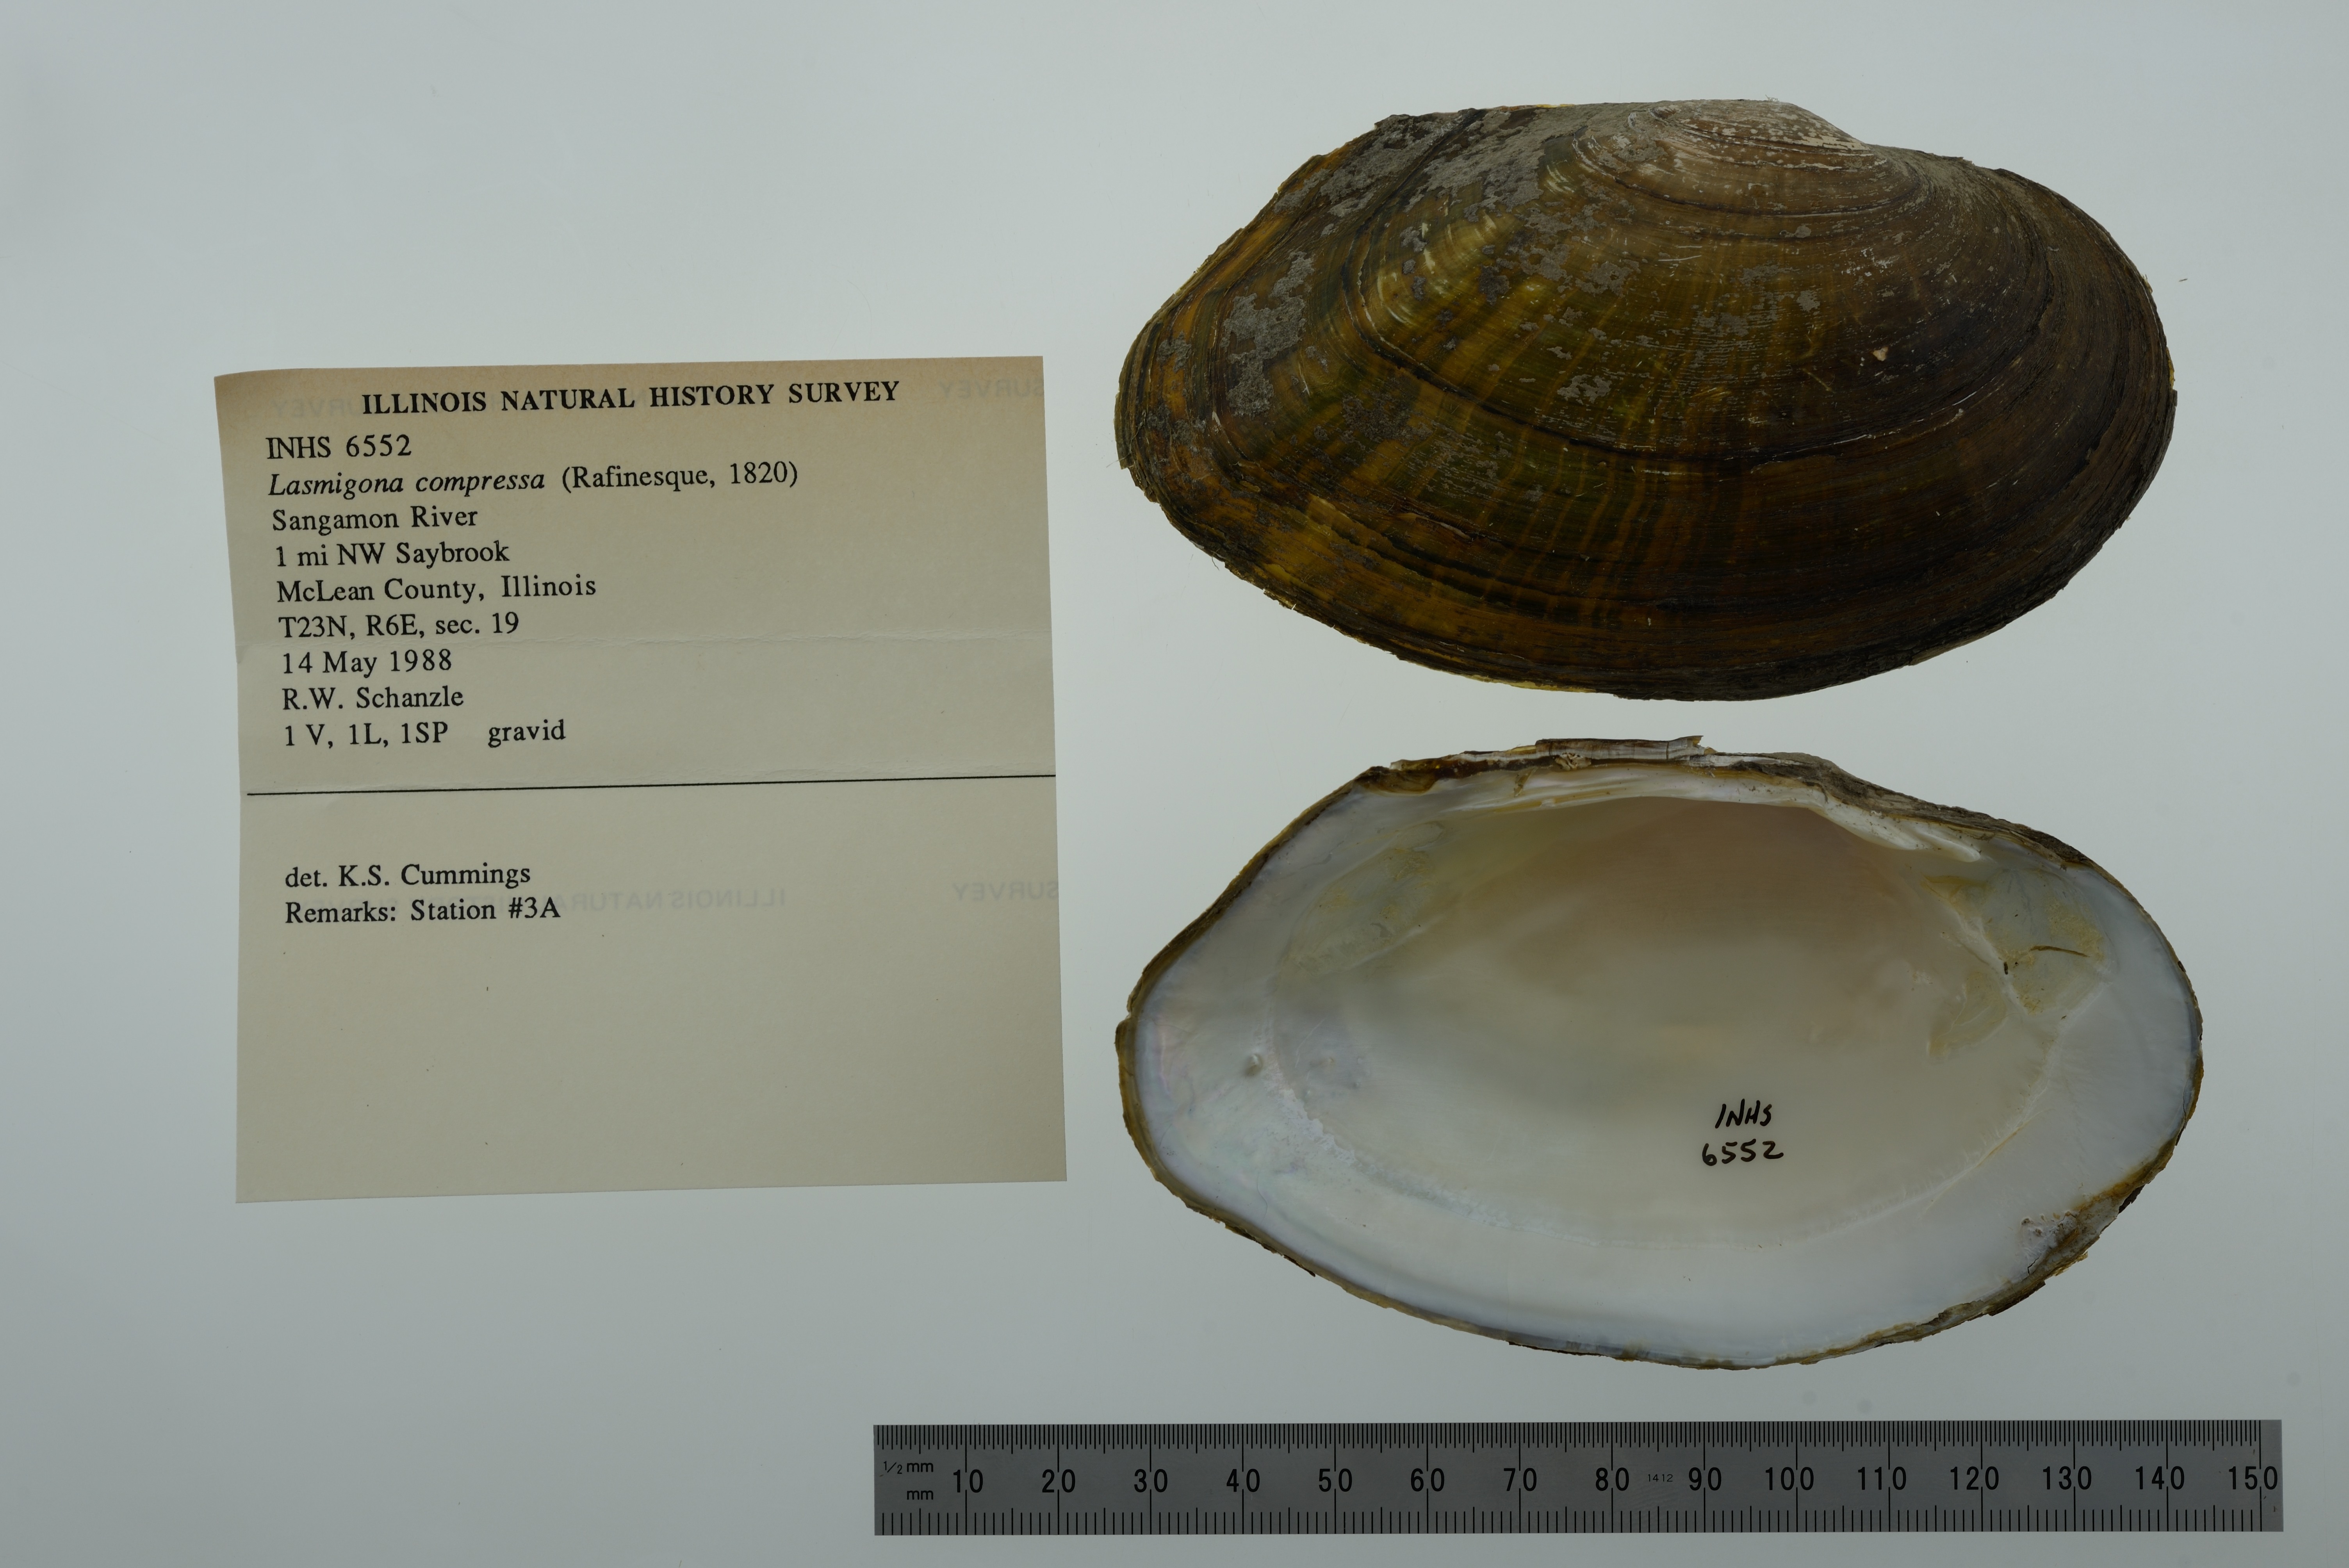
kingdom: Animalia
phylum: Mollusca
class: Bivalvia
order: Unionida
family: Unionidae
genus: Lasmigona
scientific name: Lasmigona compressa
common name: Creek heelsplitter
